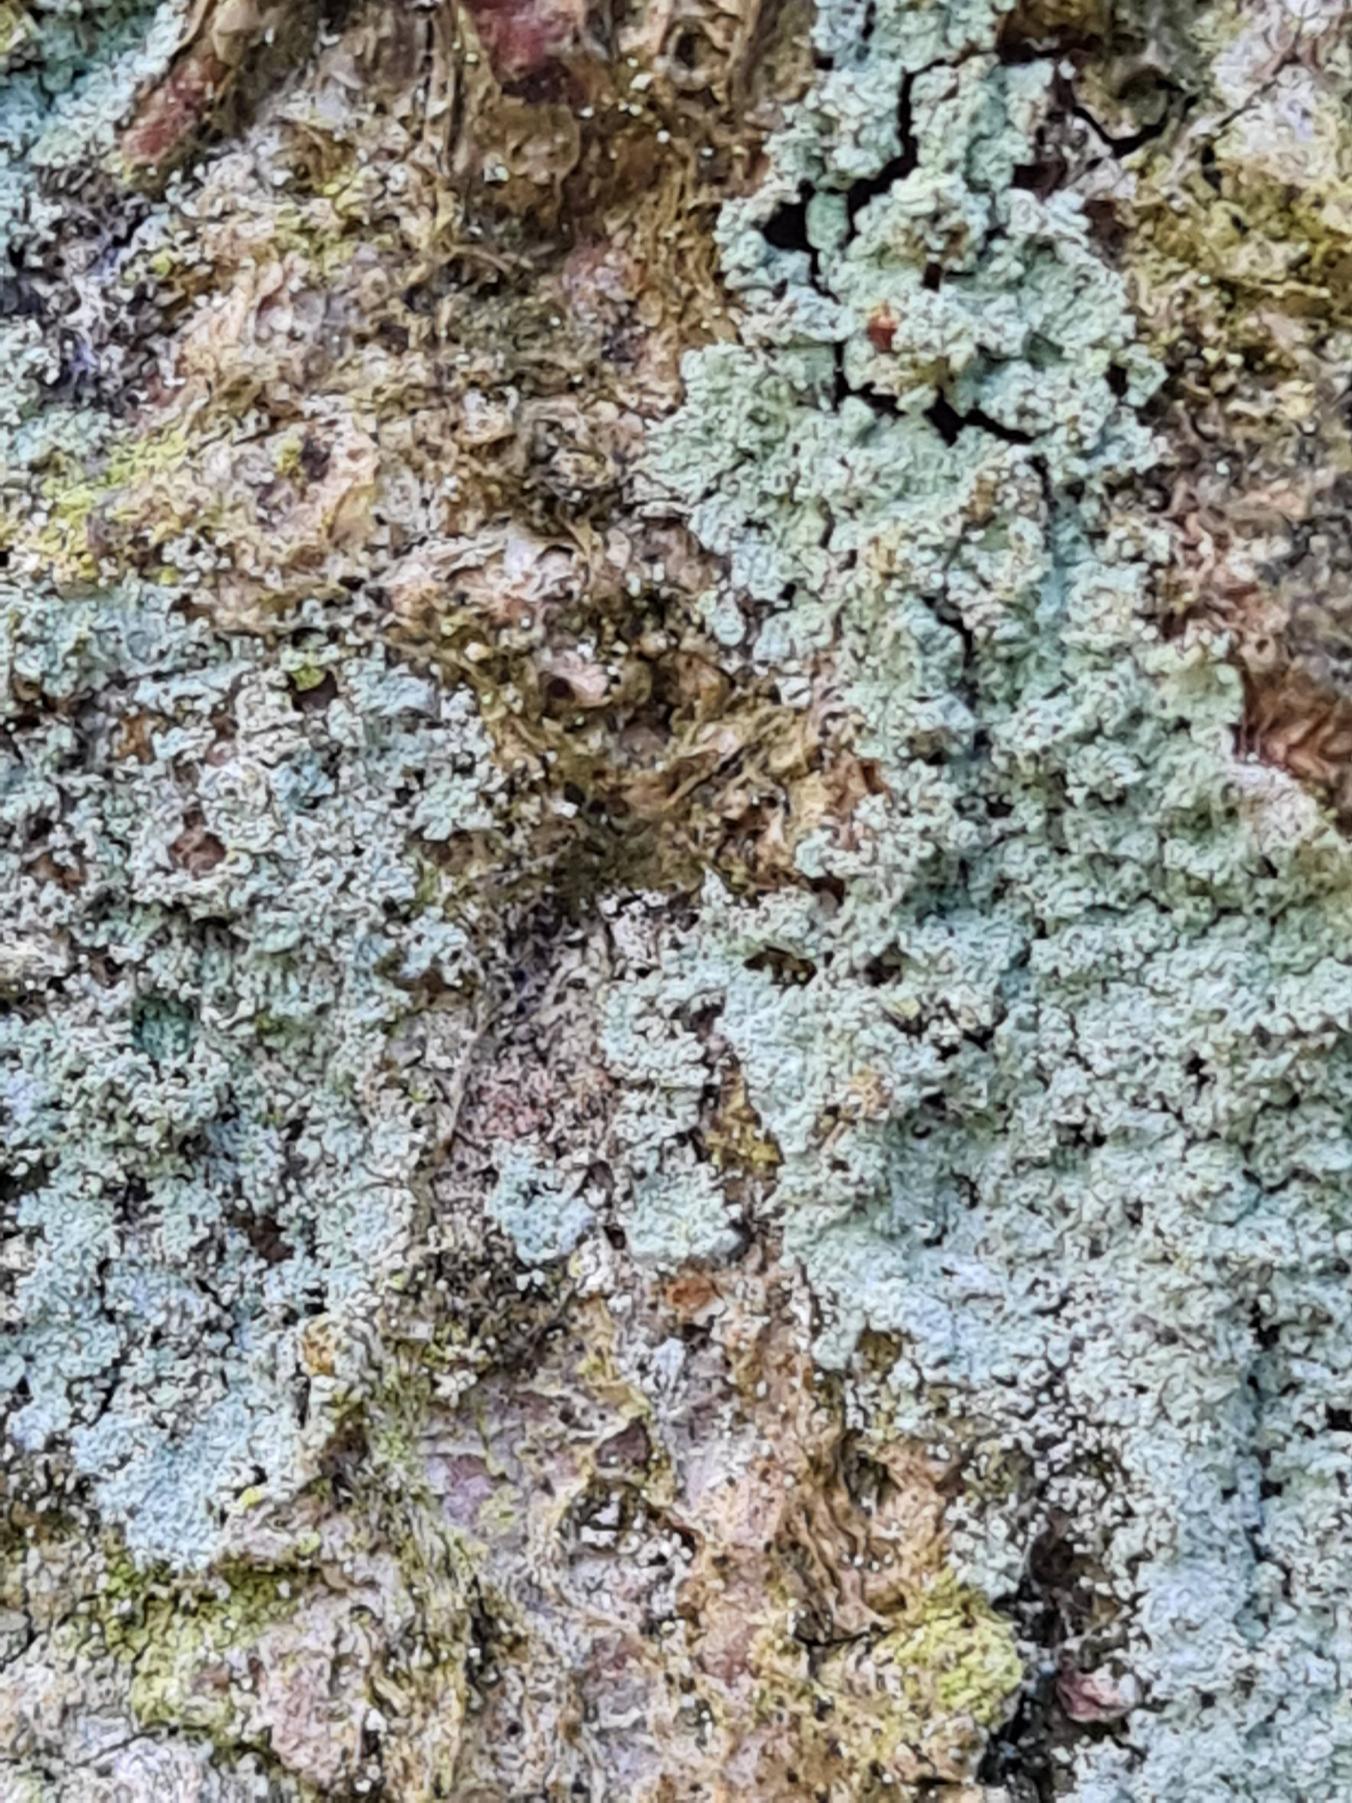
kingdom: Fungi
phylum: Ascomycota
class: Lecanoromycetes
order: Lecanorales
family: Stereocaulaceae
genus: Lepraria
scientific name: Lepraria
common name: Støvlav
